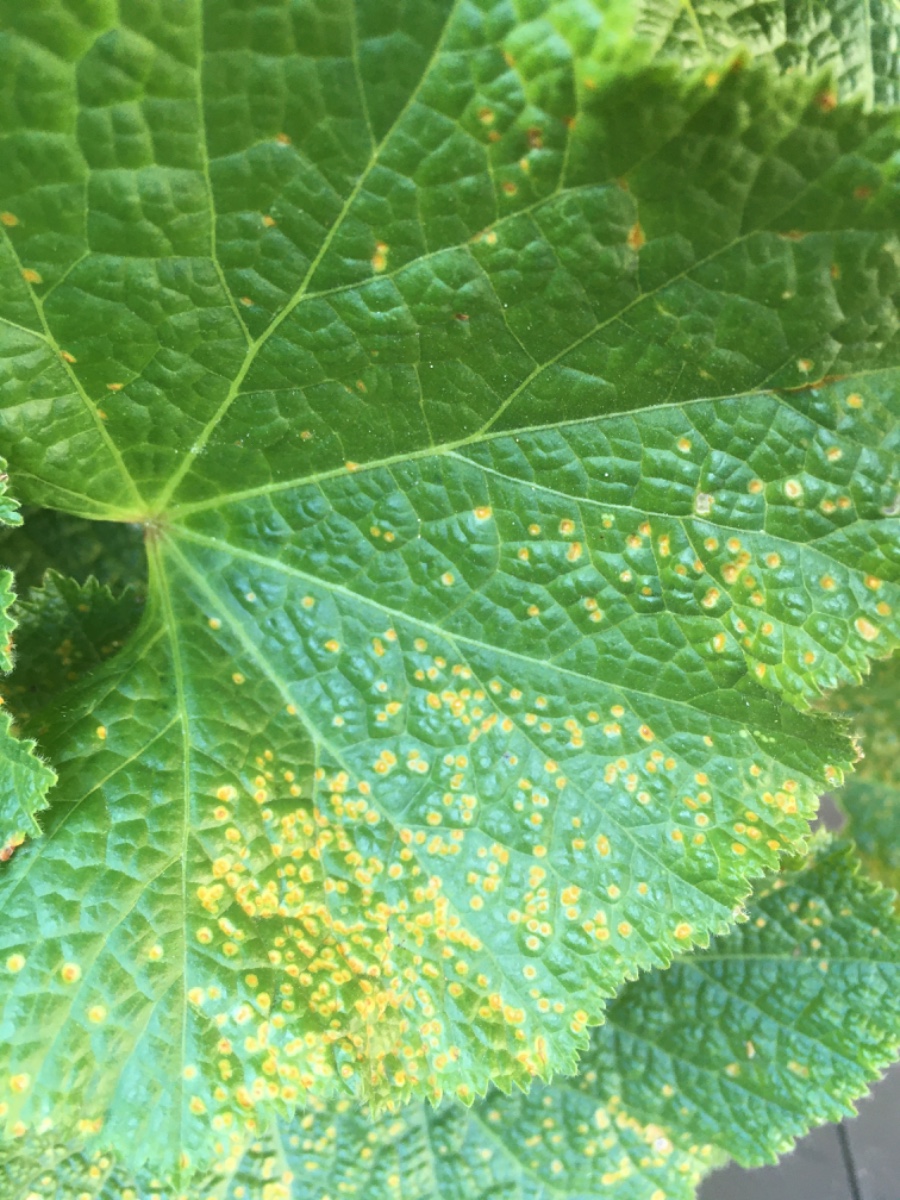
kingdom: Fungi
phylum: Basidiomycota
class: Pucciniomycetes
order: Pucciniales
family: Pucciniaceae
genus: Puccinia
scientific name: Puccinia malvacearum
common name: stokrose-tvecellerust
